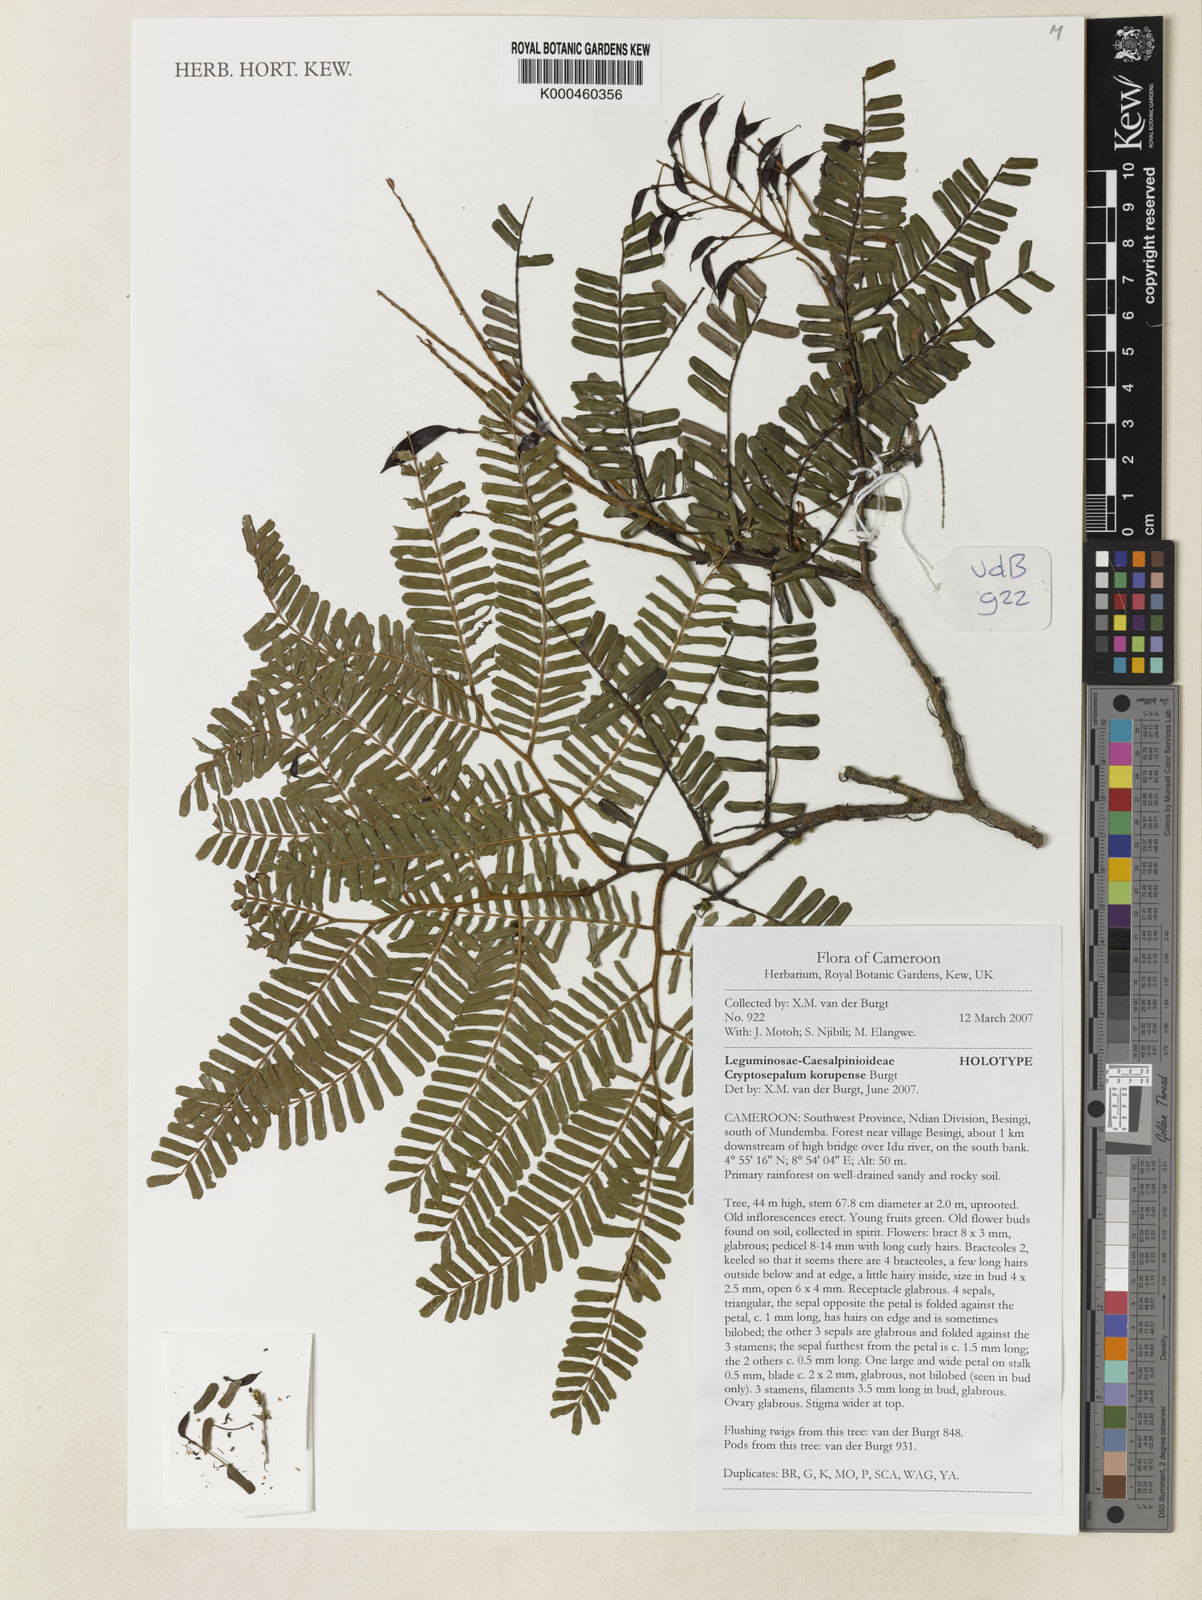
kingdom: Plantae
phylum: Tracheophyta
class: Magnoliopsida
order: Fabales
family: Fabaceae
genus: Cryptosepalum
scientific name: Cryptosepalum korupense
